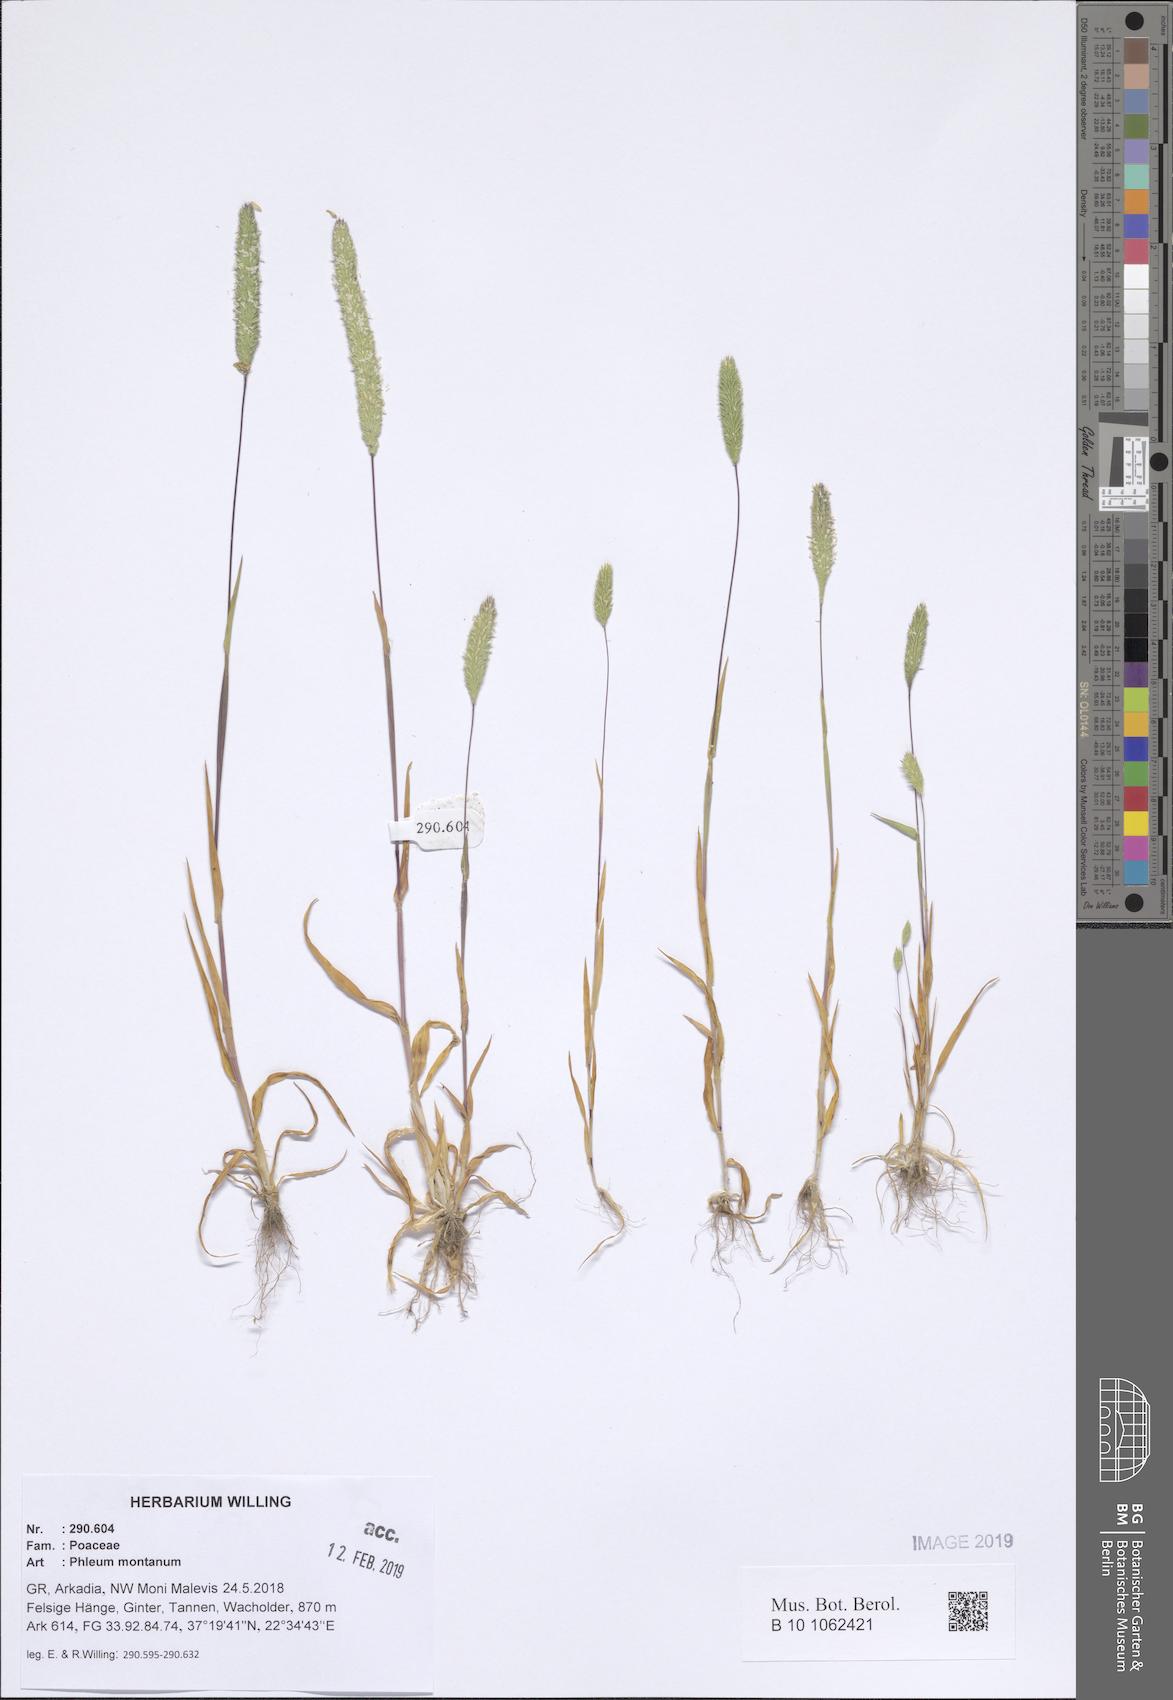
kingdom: Plantae
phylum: Tracheophyta
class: Liliopsida
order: Poales
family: Poaceae
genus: Phleum
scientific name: Phleum montanum
